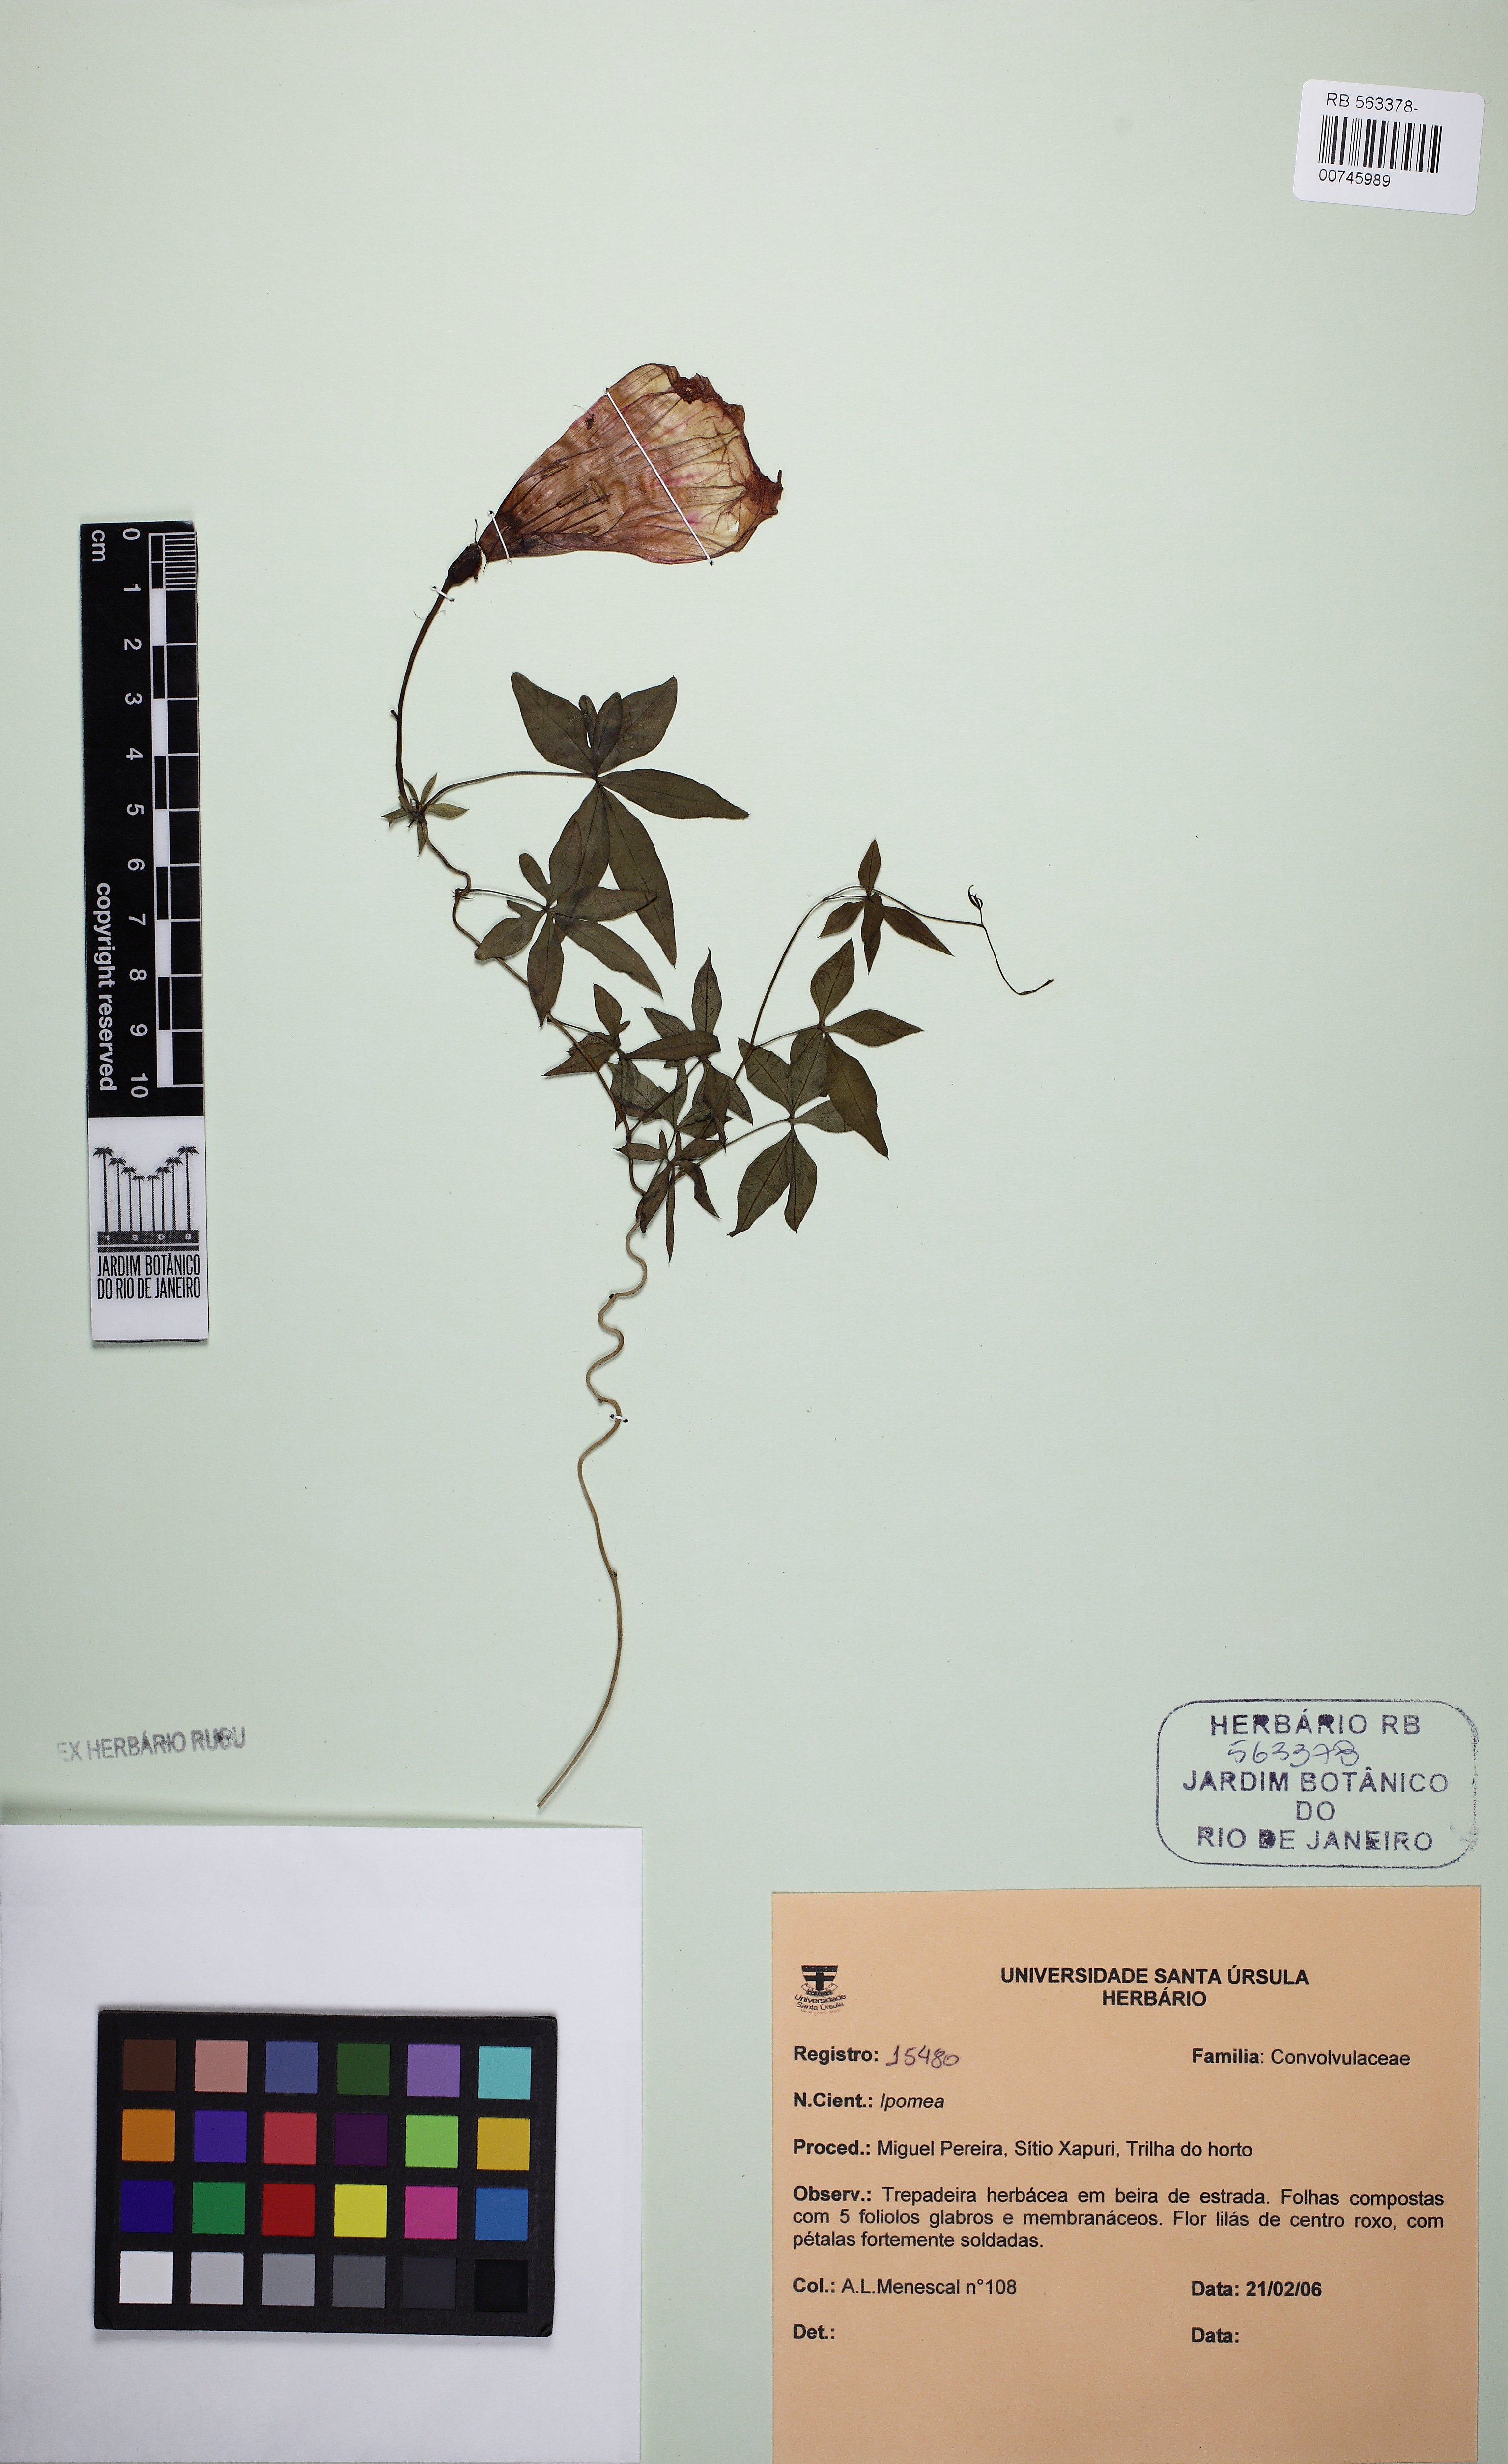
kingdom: Plantae
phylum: Tracheophyta
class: Magnoliopsida
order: Solanales
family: Convolvulaceae
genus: Ipomoea
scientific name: Ipomoea cairica
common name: Mile a minute vine
